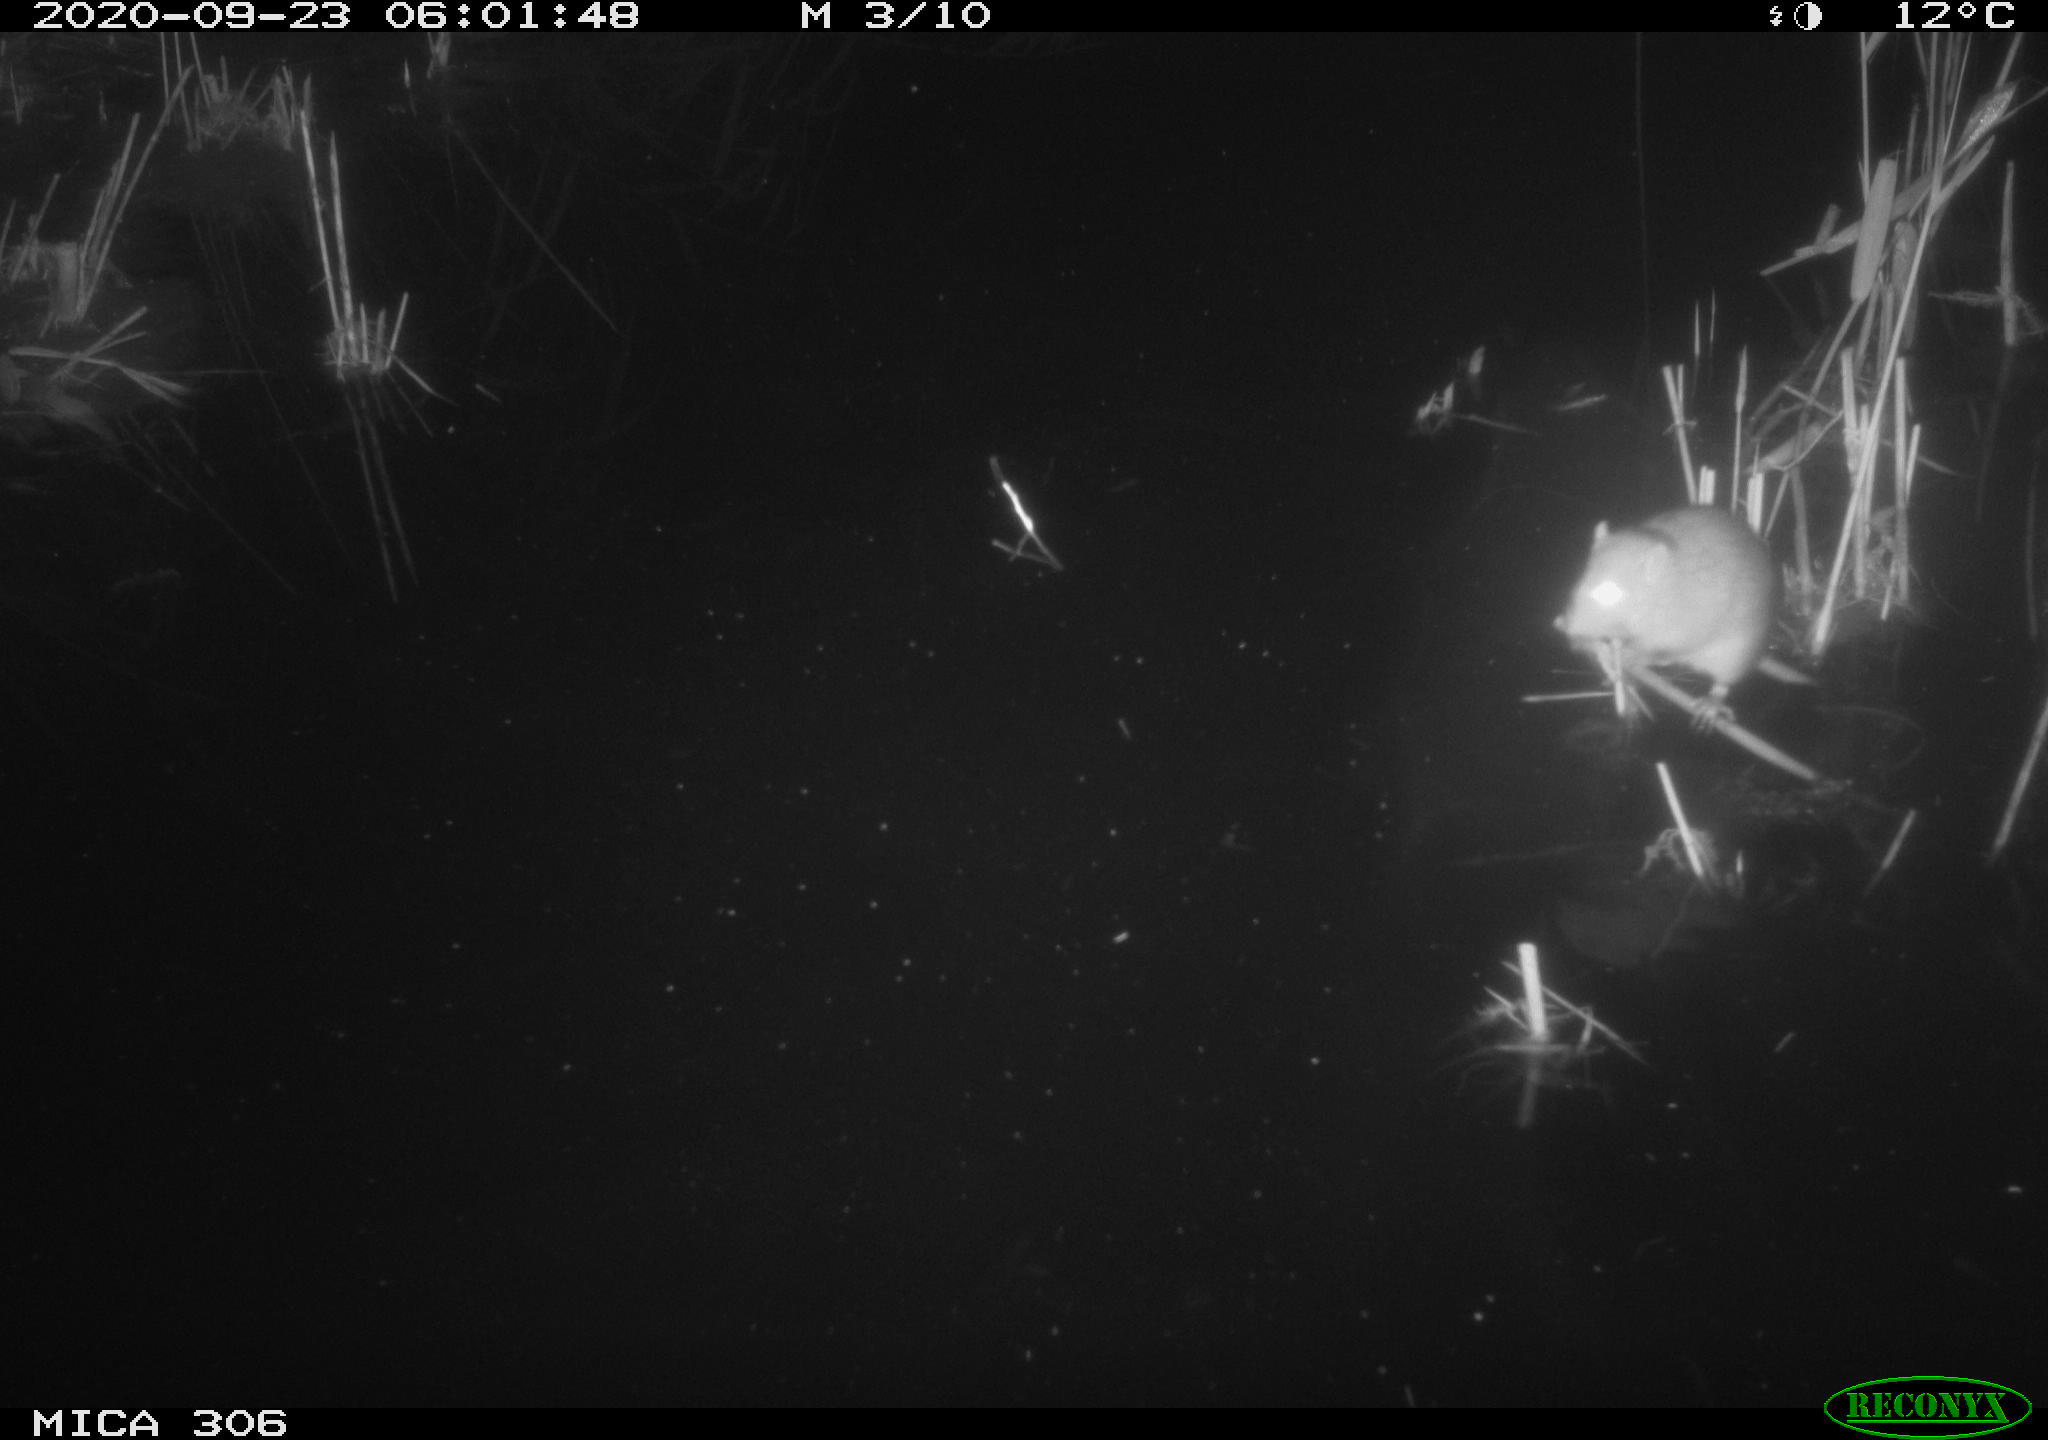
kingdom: Animalia
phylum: Chordata
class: Mammalia
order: Rodentia
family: Muridae
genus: Rattus
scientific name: Rattus norvegicus
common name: Brown rat
